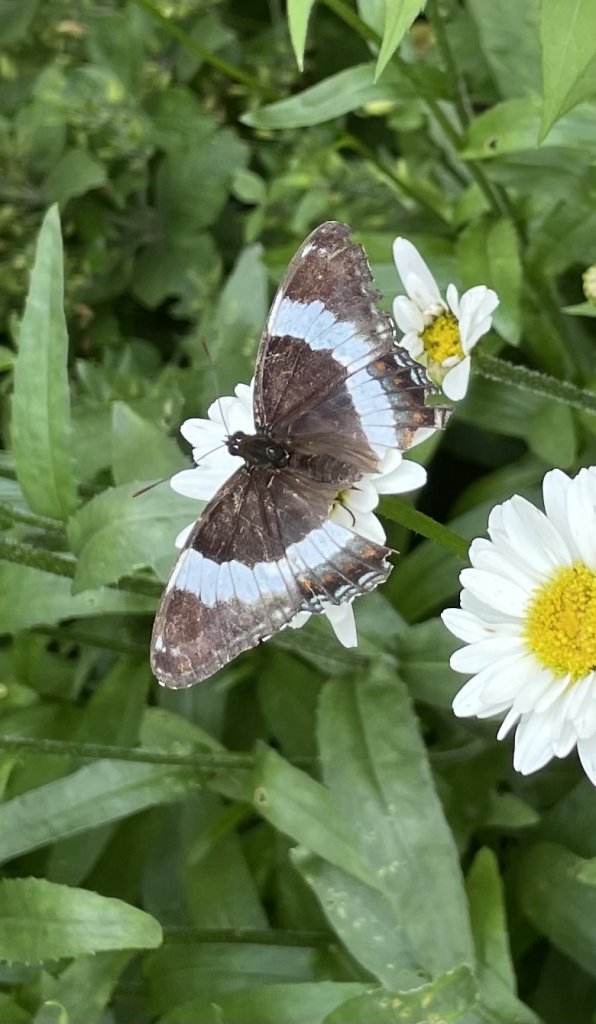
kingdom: Animalia
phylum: Arthropoda
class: Insecta
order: Lepidoptera
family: Nymphalidae
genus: Limenitis
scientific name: Limenitis arthemis
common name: Red-spotted Admiral
